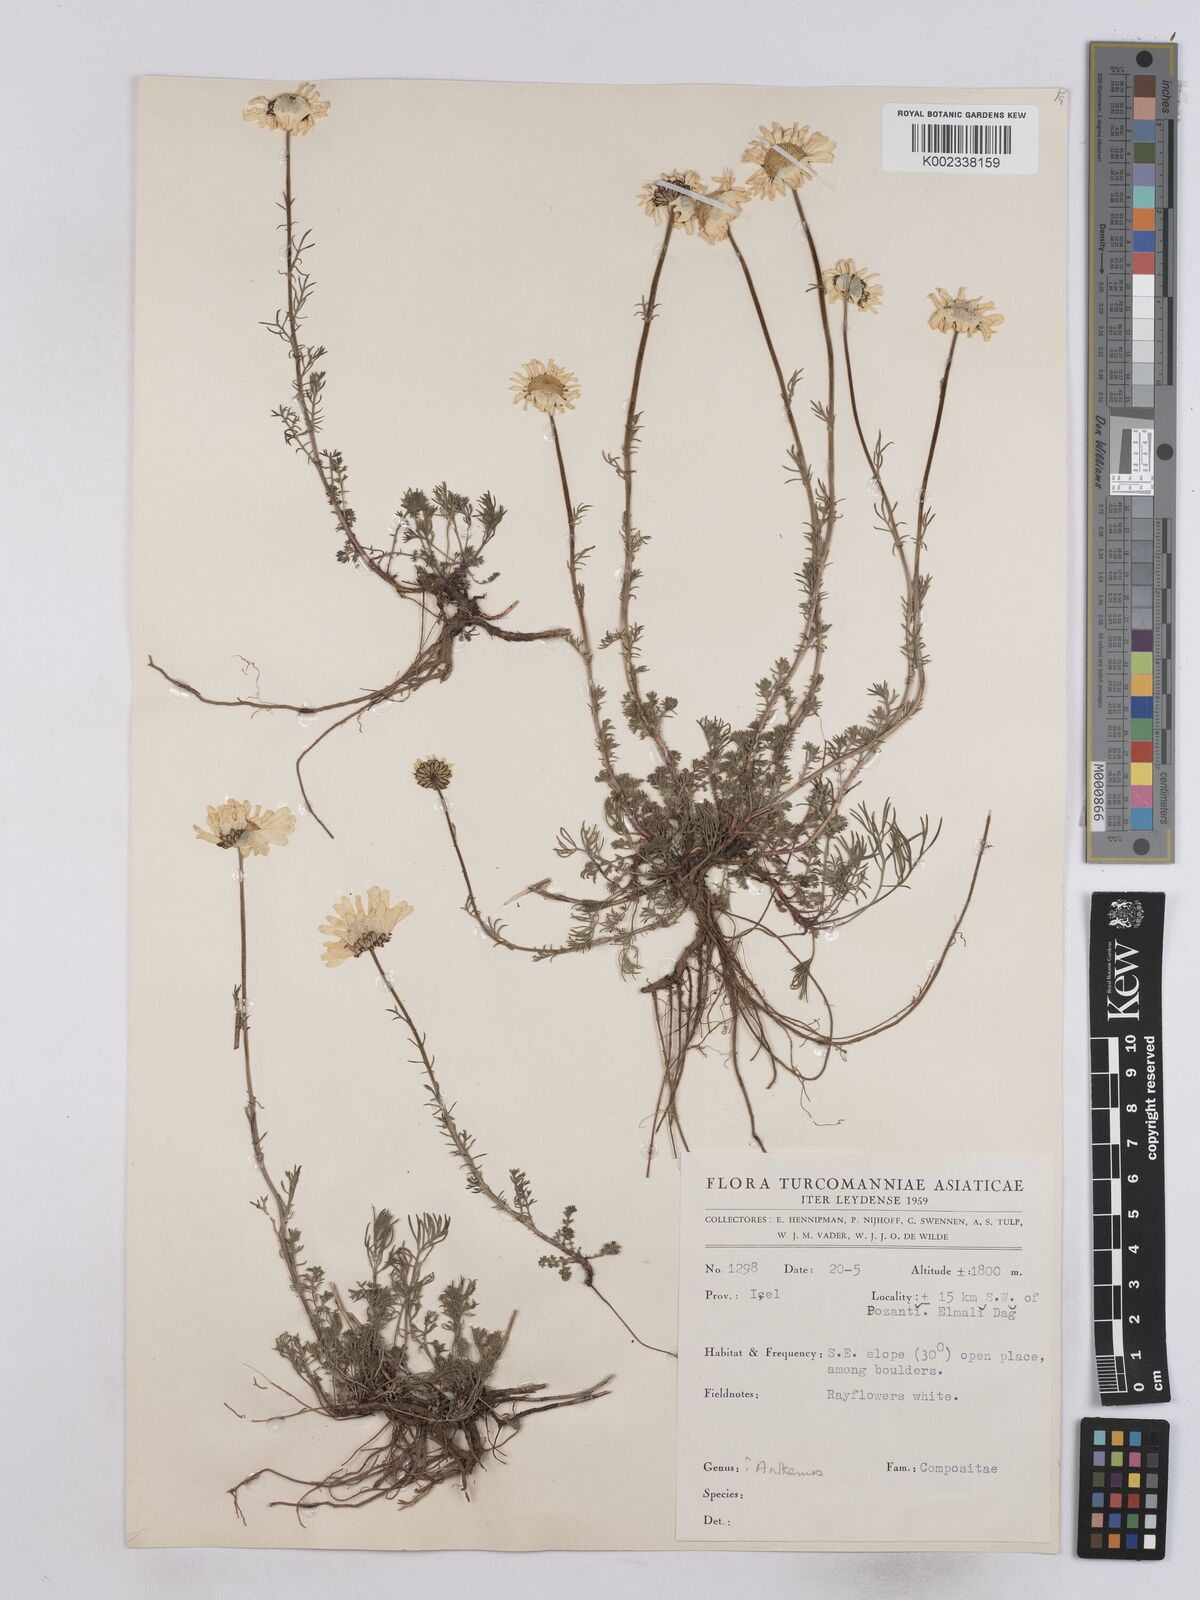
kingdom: Plantae
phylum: Tracheophyta
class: Magnoliopsida
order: Asterales
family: Asteraceae
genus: Matricaria
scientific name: Matricaria
